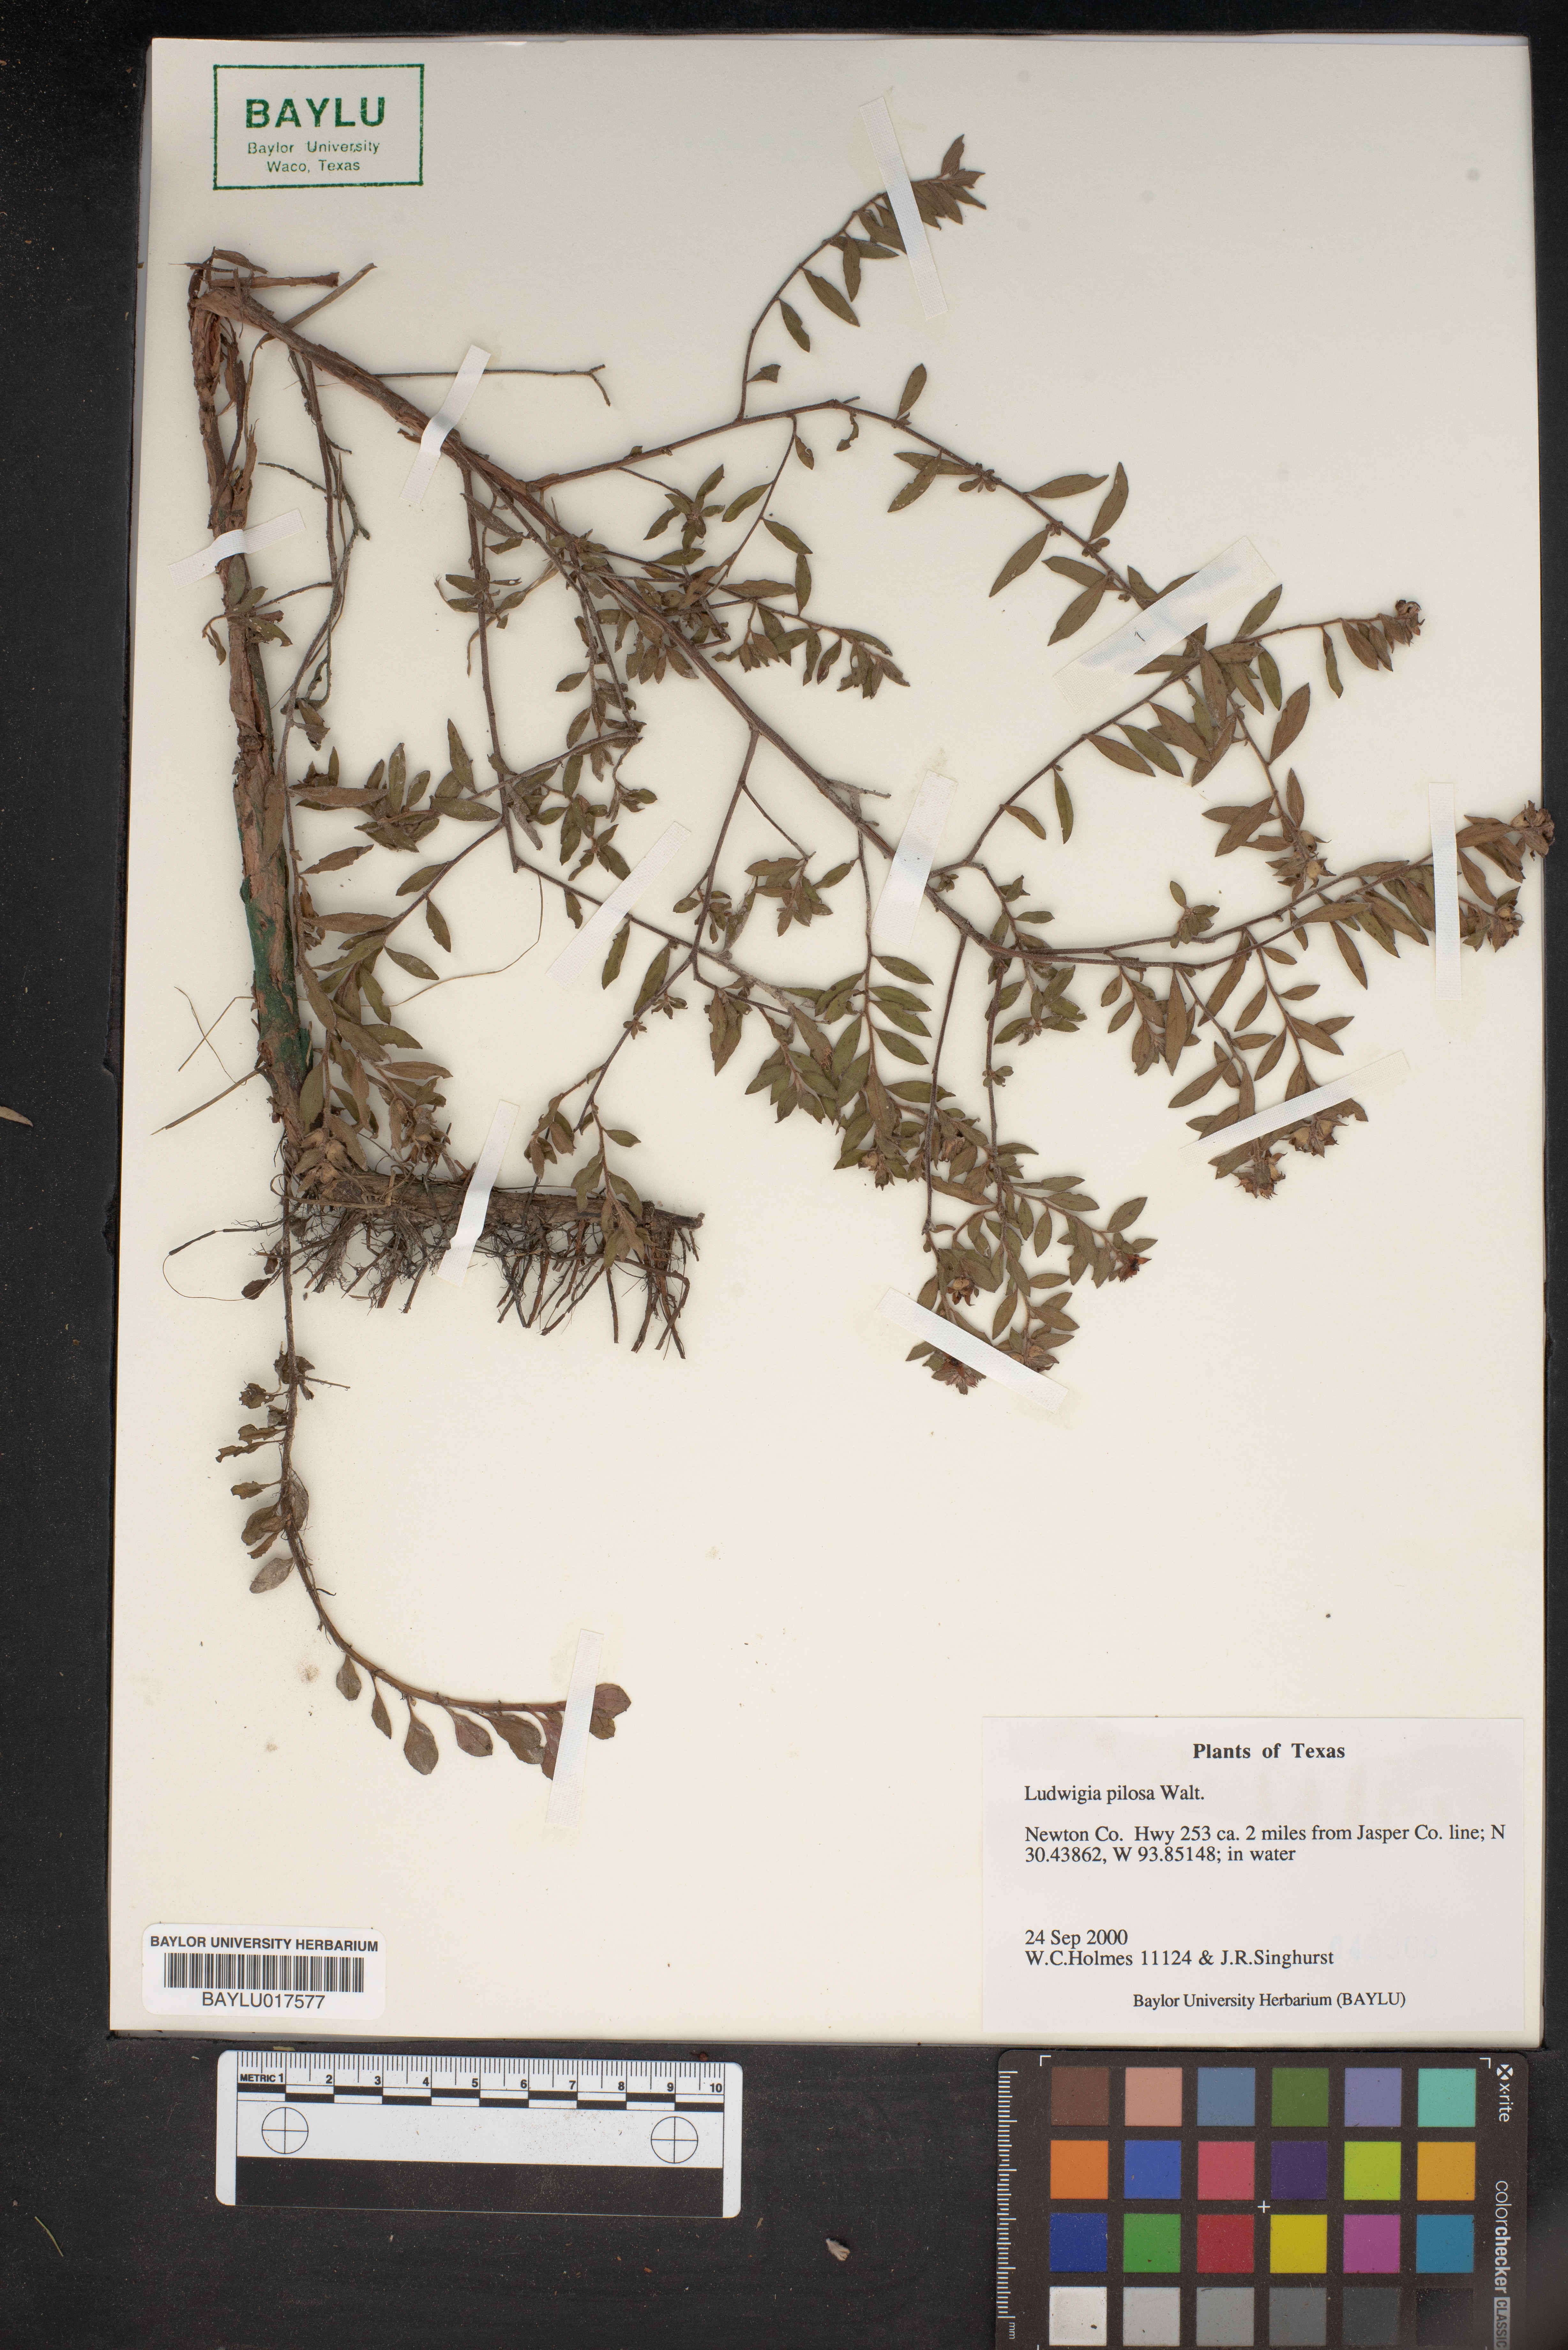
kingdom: Plantae
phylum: Tracheophyta
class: Magnoliopsida
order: Myrtales
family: Onagraceae
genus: Ludwigia
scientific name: Ludwigia pilosa
